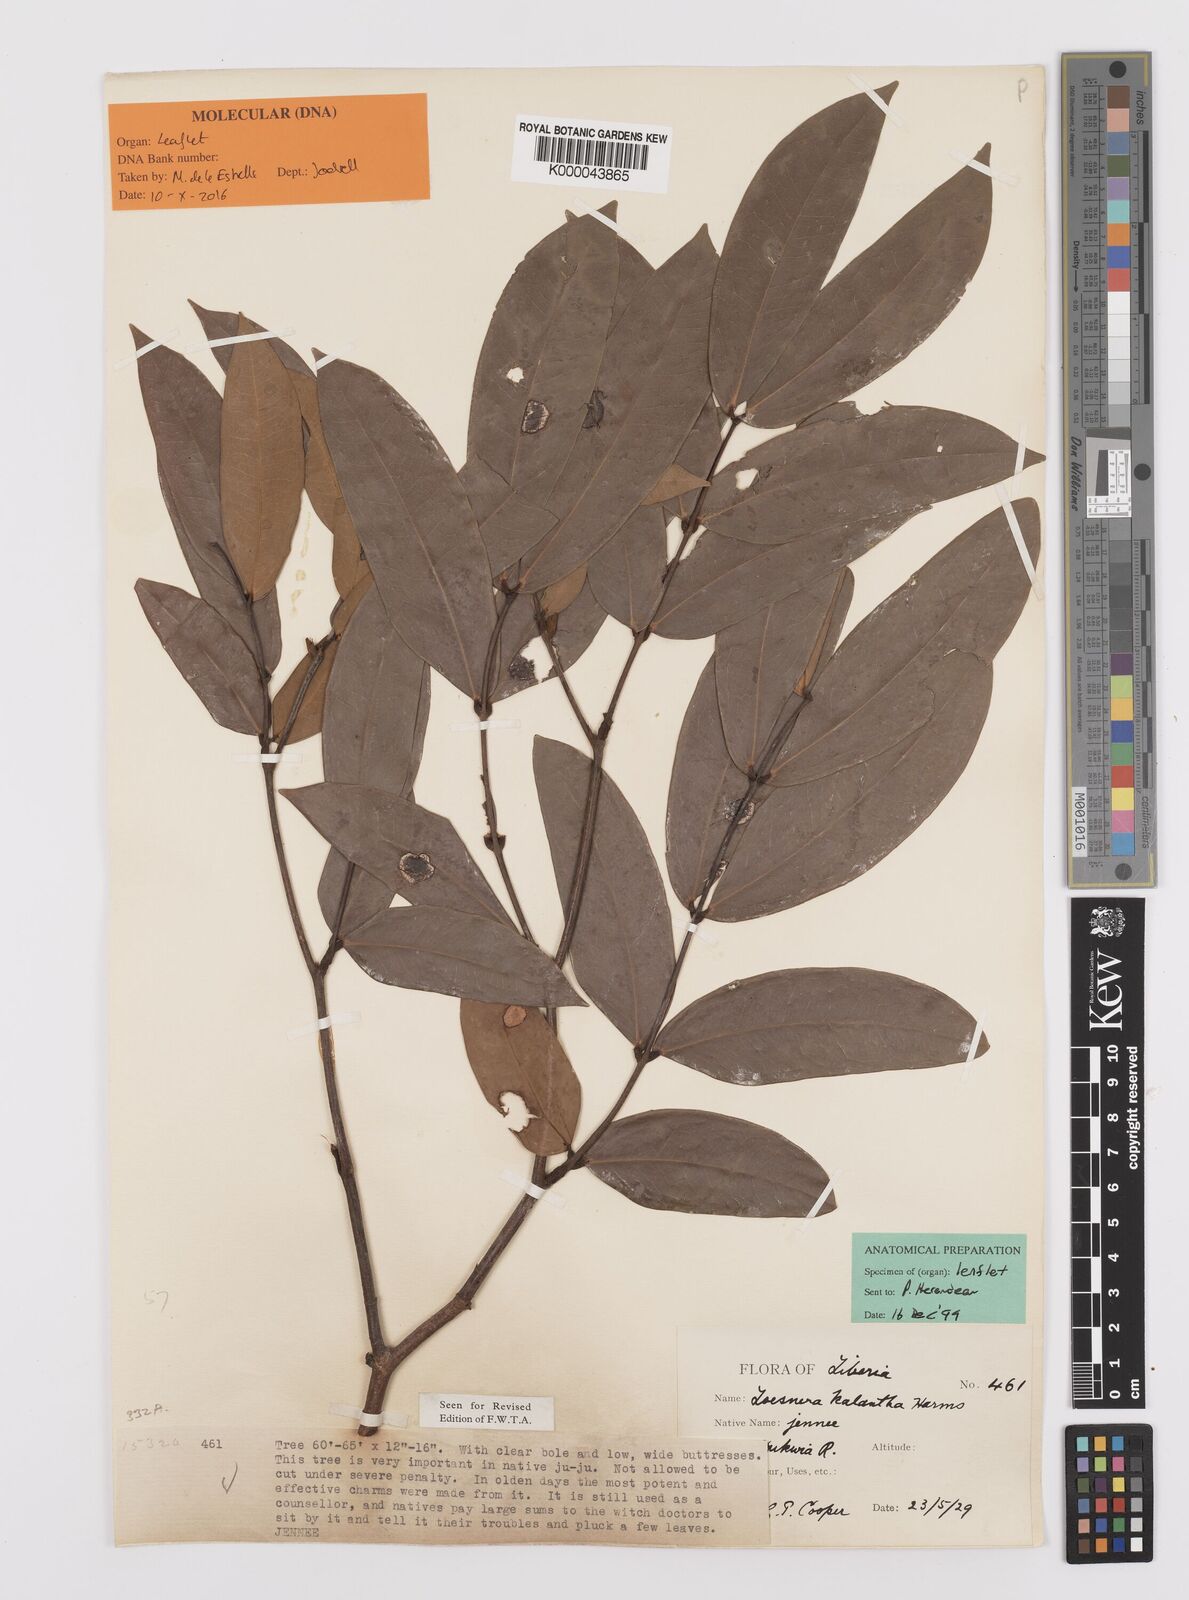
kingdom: Plantae
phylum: Tracheophyta
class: Magnoliopsida
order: Fabales
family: Fabaceae
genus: Loesenera
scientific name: Loesenera kalantha
